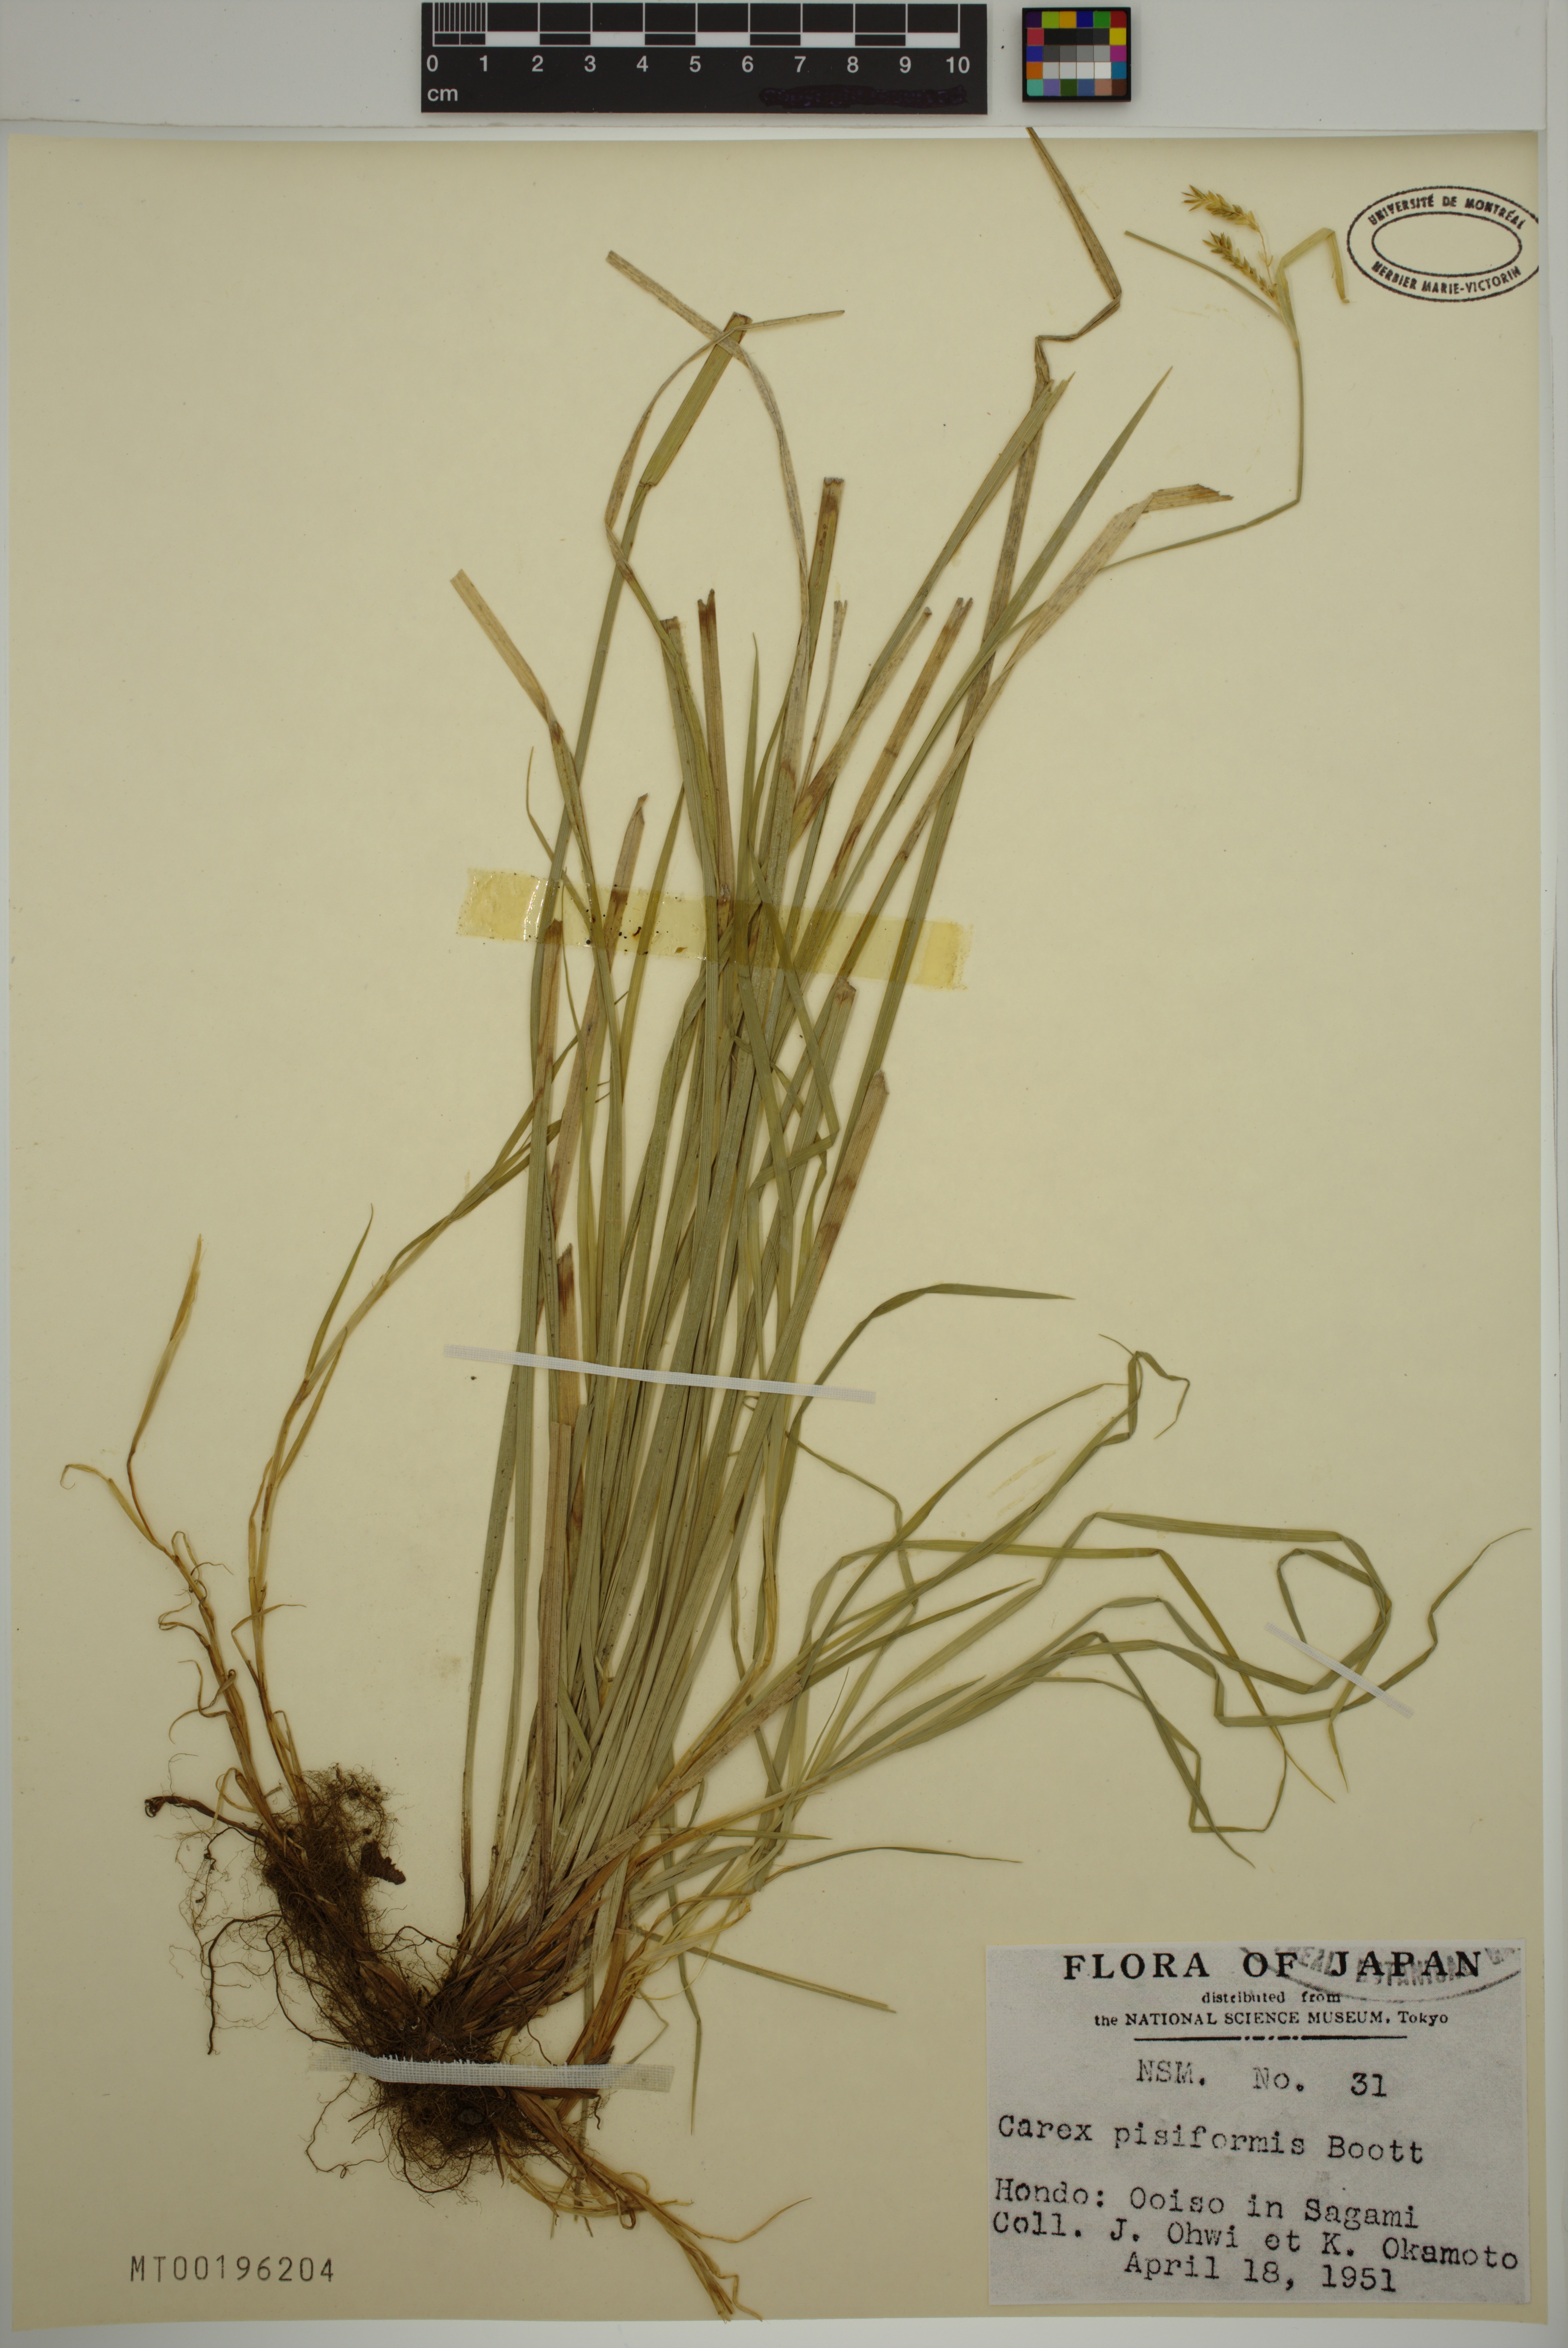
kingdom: Plantae
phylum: Tracheophyta
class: Liliopsida
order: Poales
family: Cyperaceae
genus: Carex
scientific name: Carex pisiformis
